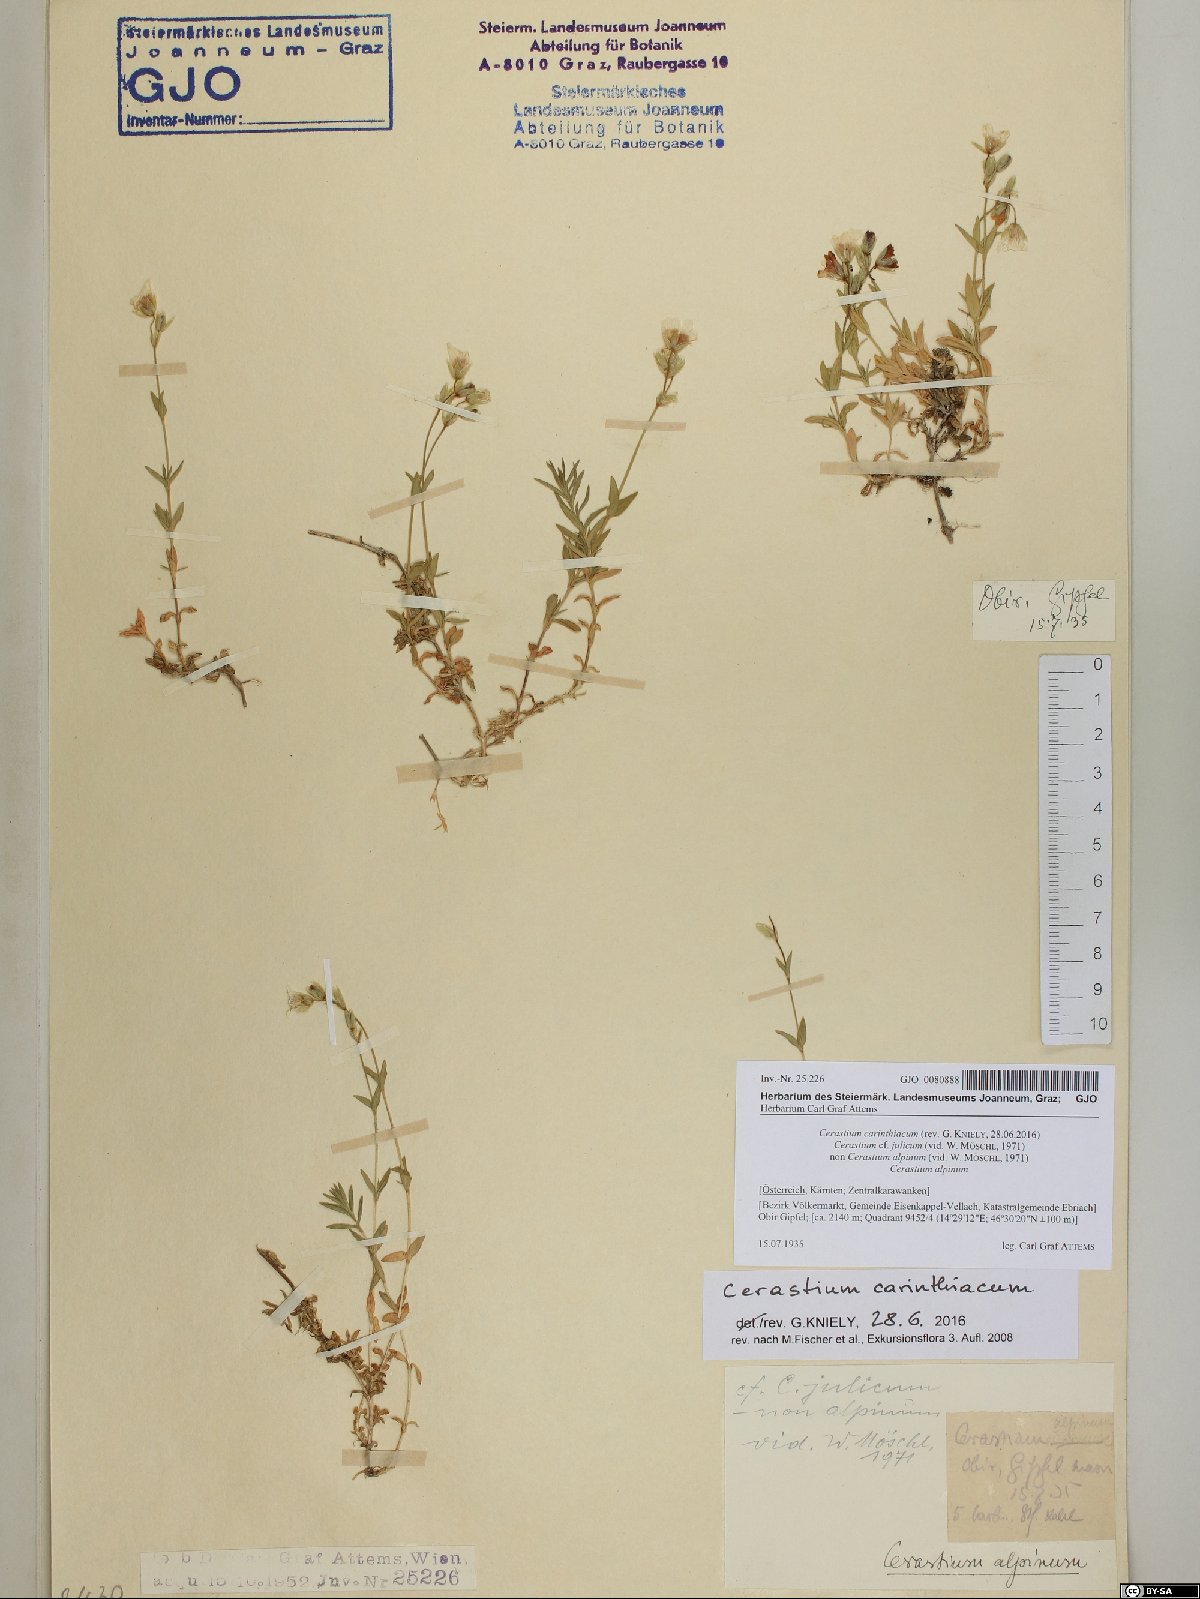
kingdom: Plantae
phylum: Tracheophyta
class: Magnoliopsida
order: Caryophyllales
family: Caryophyllaceae
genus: Cerastium
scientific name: Cerastium carinthiacum
